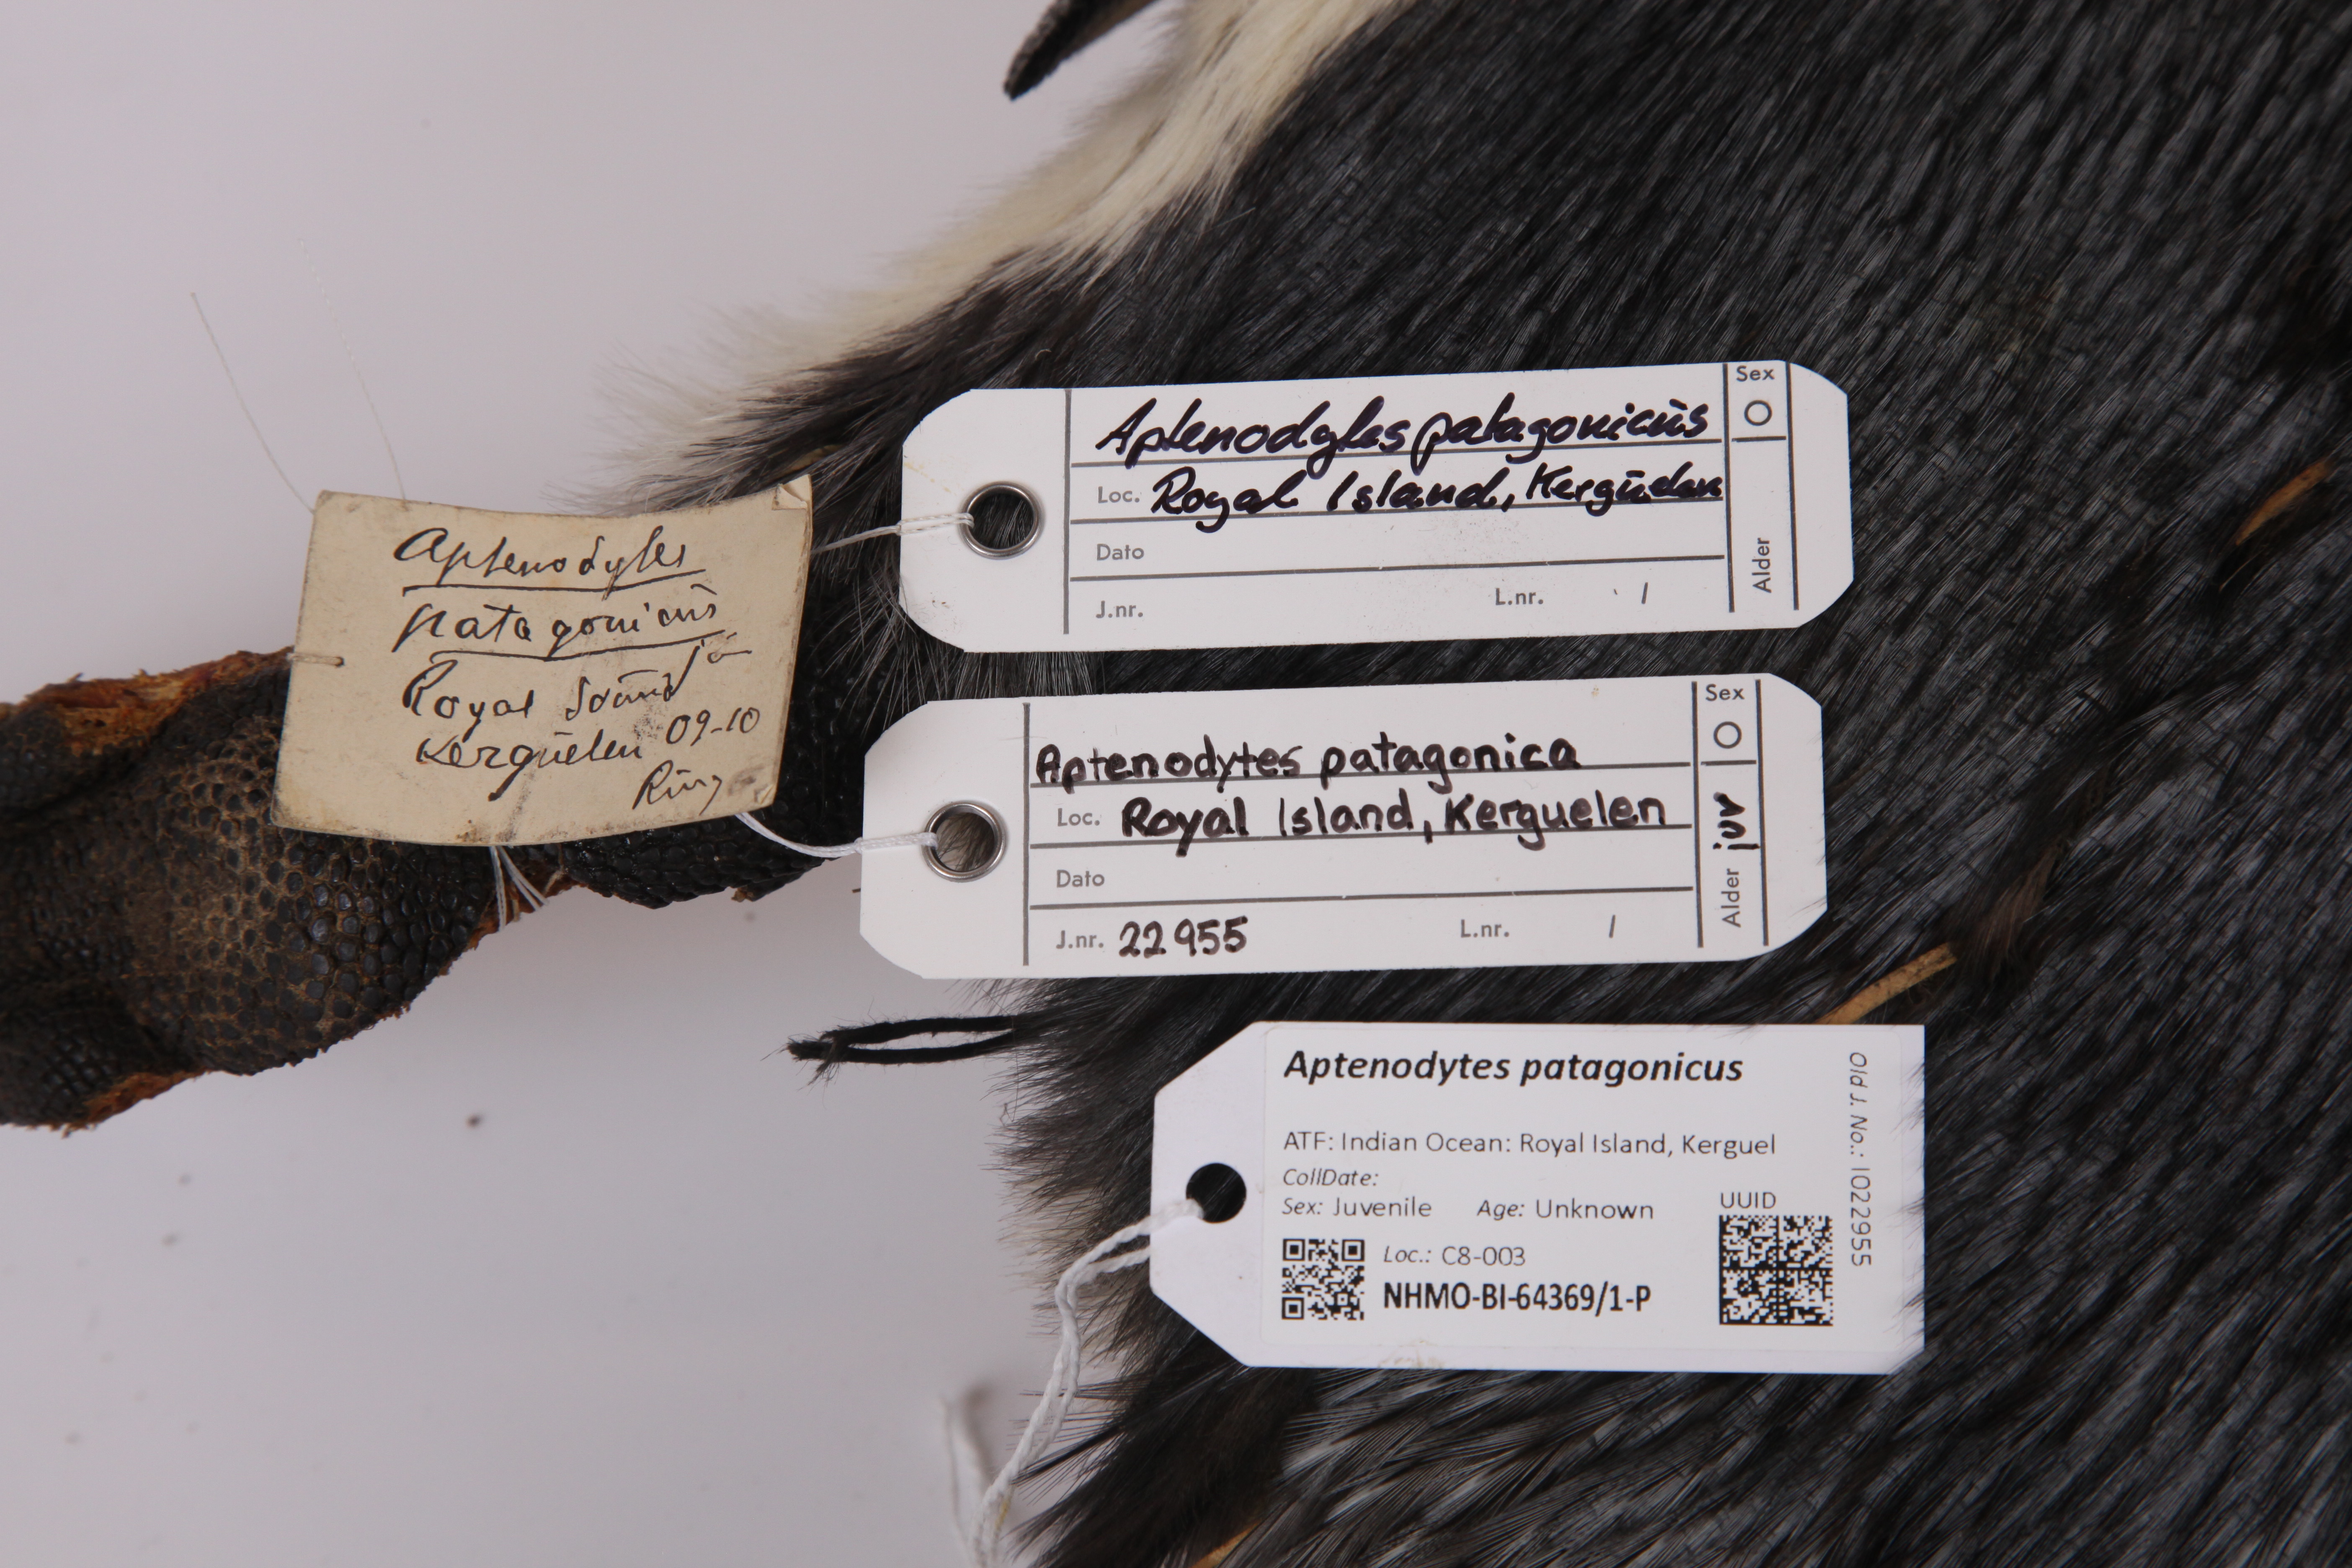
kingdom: Animalia
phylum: Chordata
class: Aves
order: Sphenisciformes
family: Spheniscidae
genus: Aptenodytes
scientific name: Aptenodytes patagonicus
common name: King penguin
